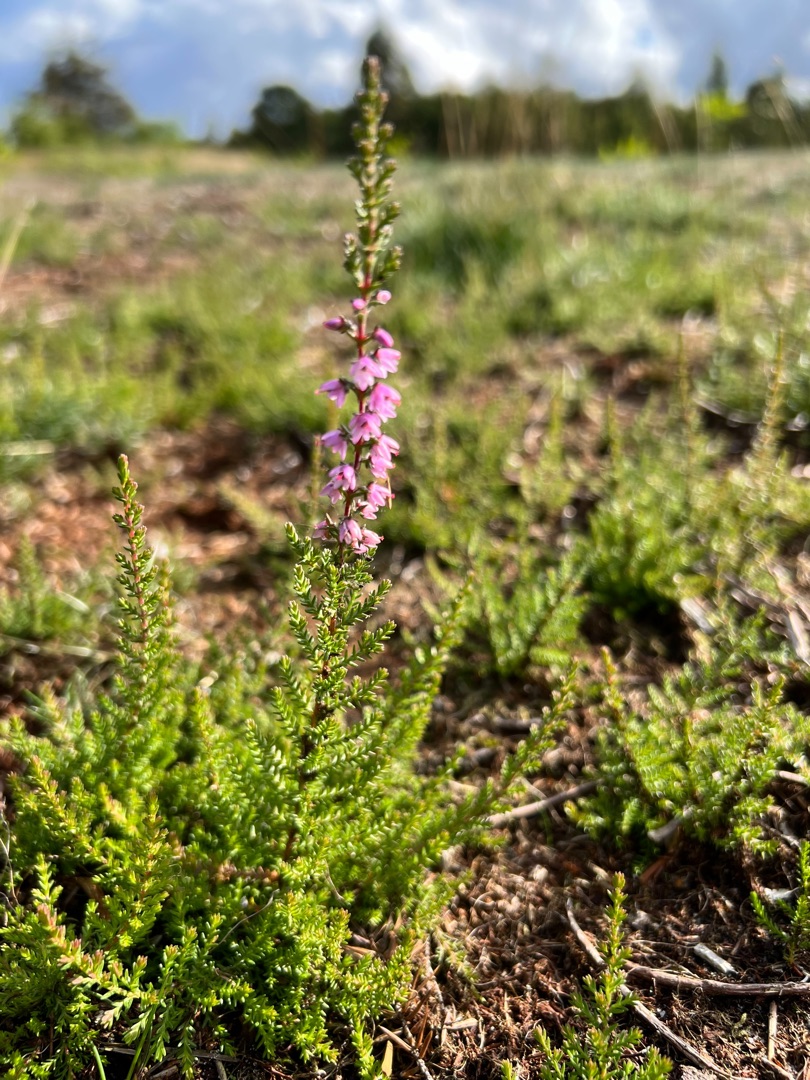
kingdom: Plantae
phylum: Tracheophyta
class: Magnoliopsida
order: Ericales
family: Ericaceae
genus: Calluna
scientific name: Calluna vulgaris
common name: Hedelyng
